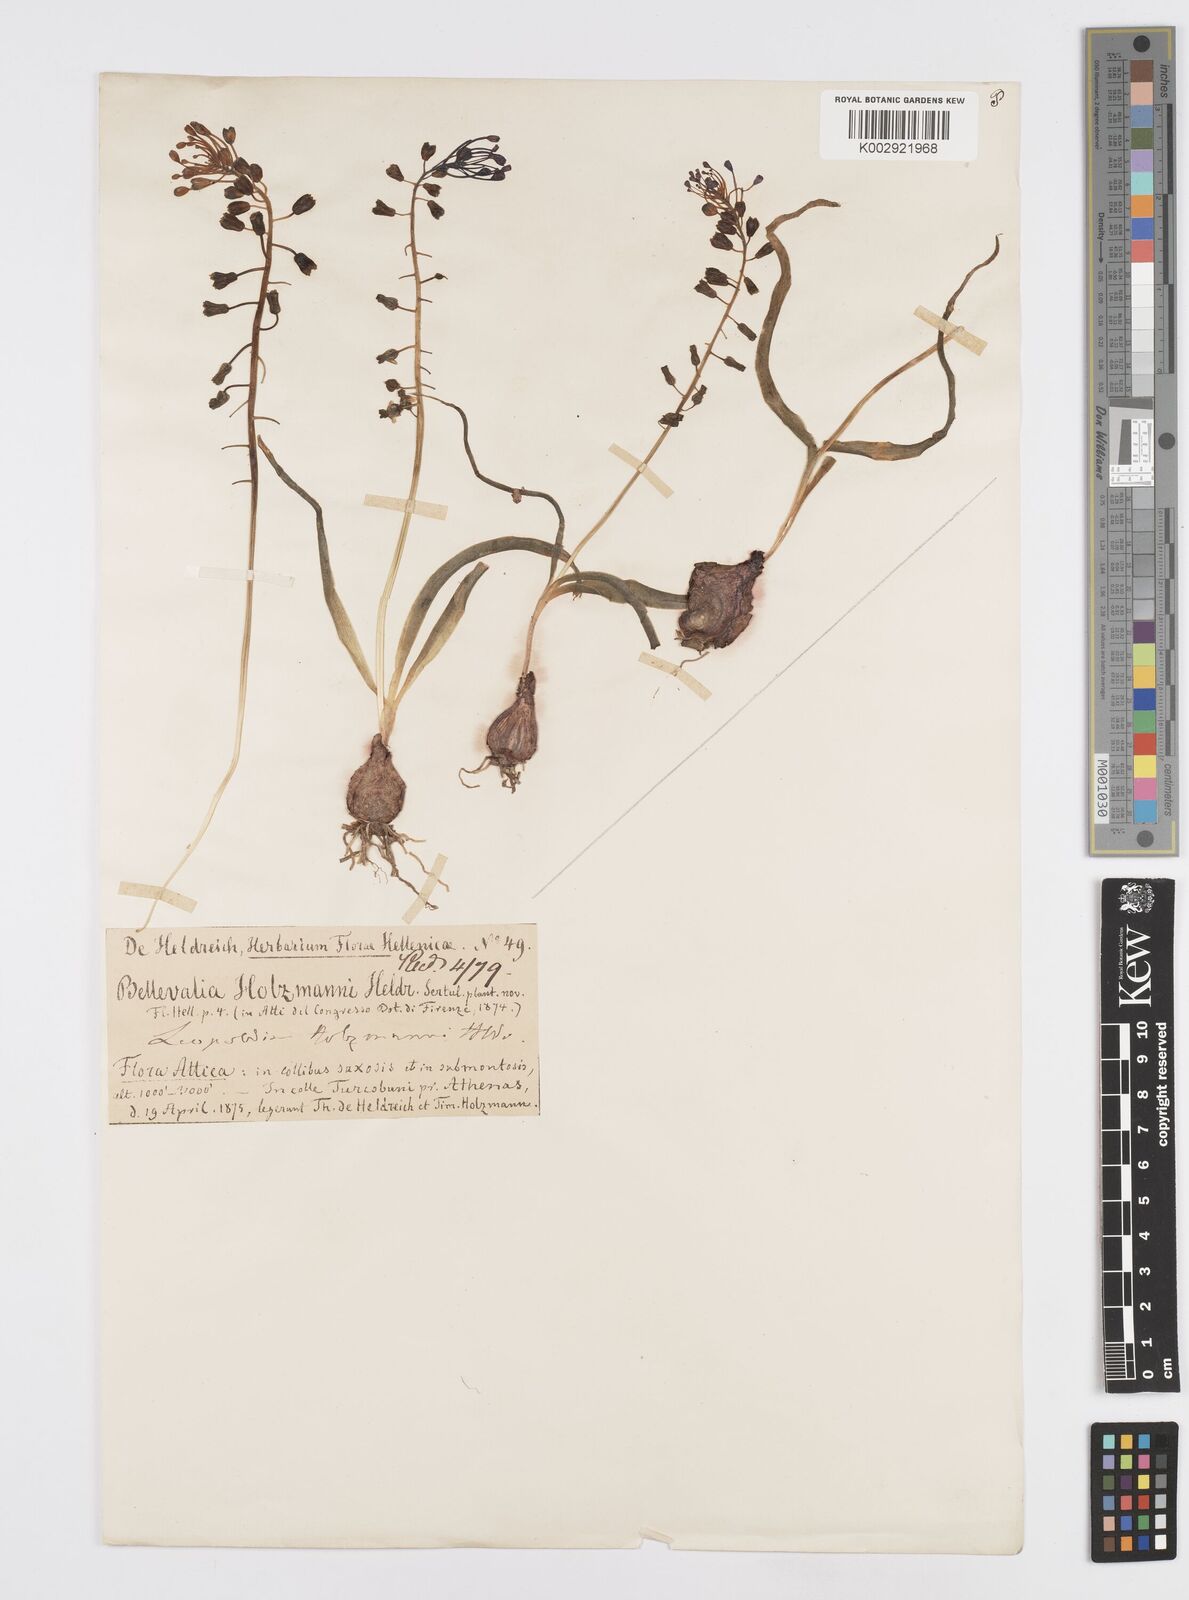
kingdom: Plantae
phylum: Tracheophyta
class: Liliopsida
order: Asparagales
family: Asparagaceae
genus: Muscari
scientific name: Muscari comosum
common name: Tassel hyacinth
